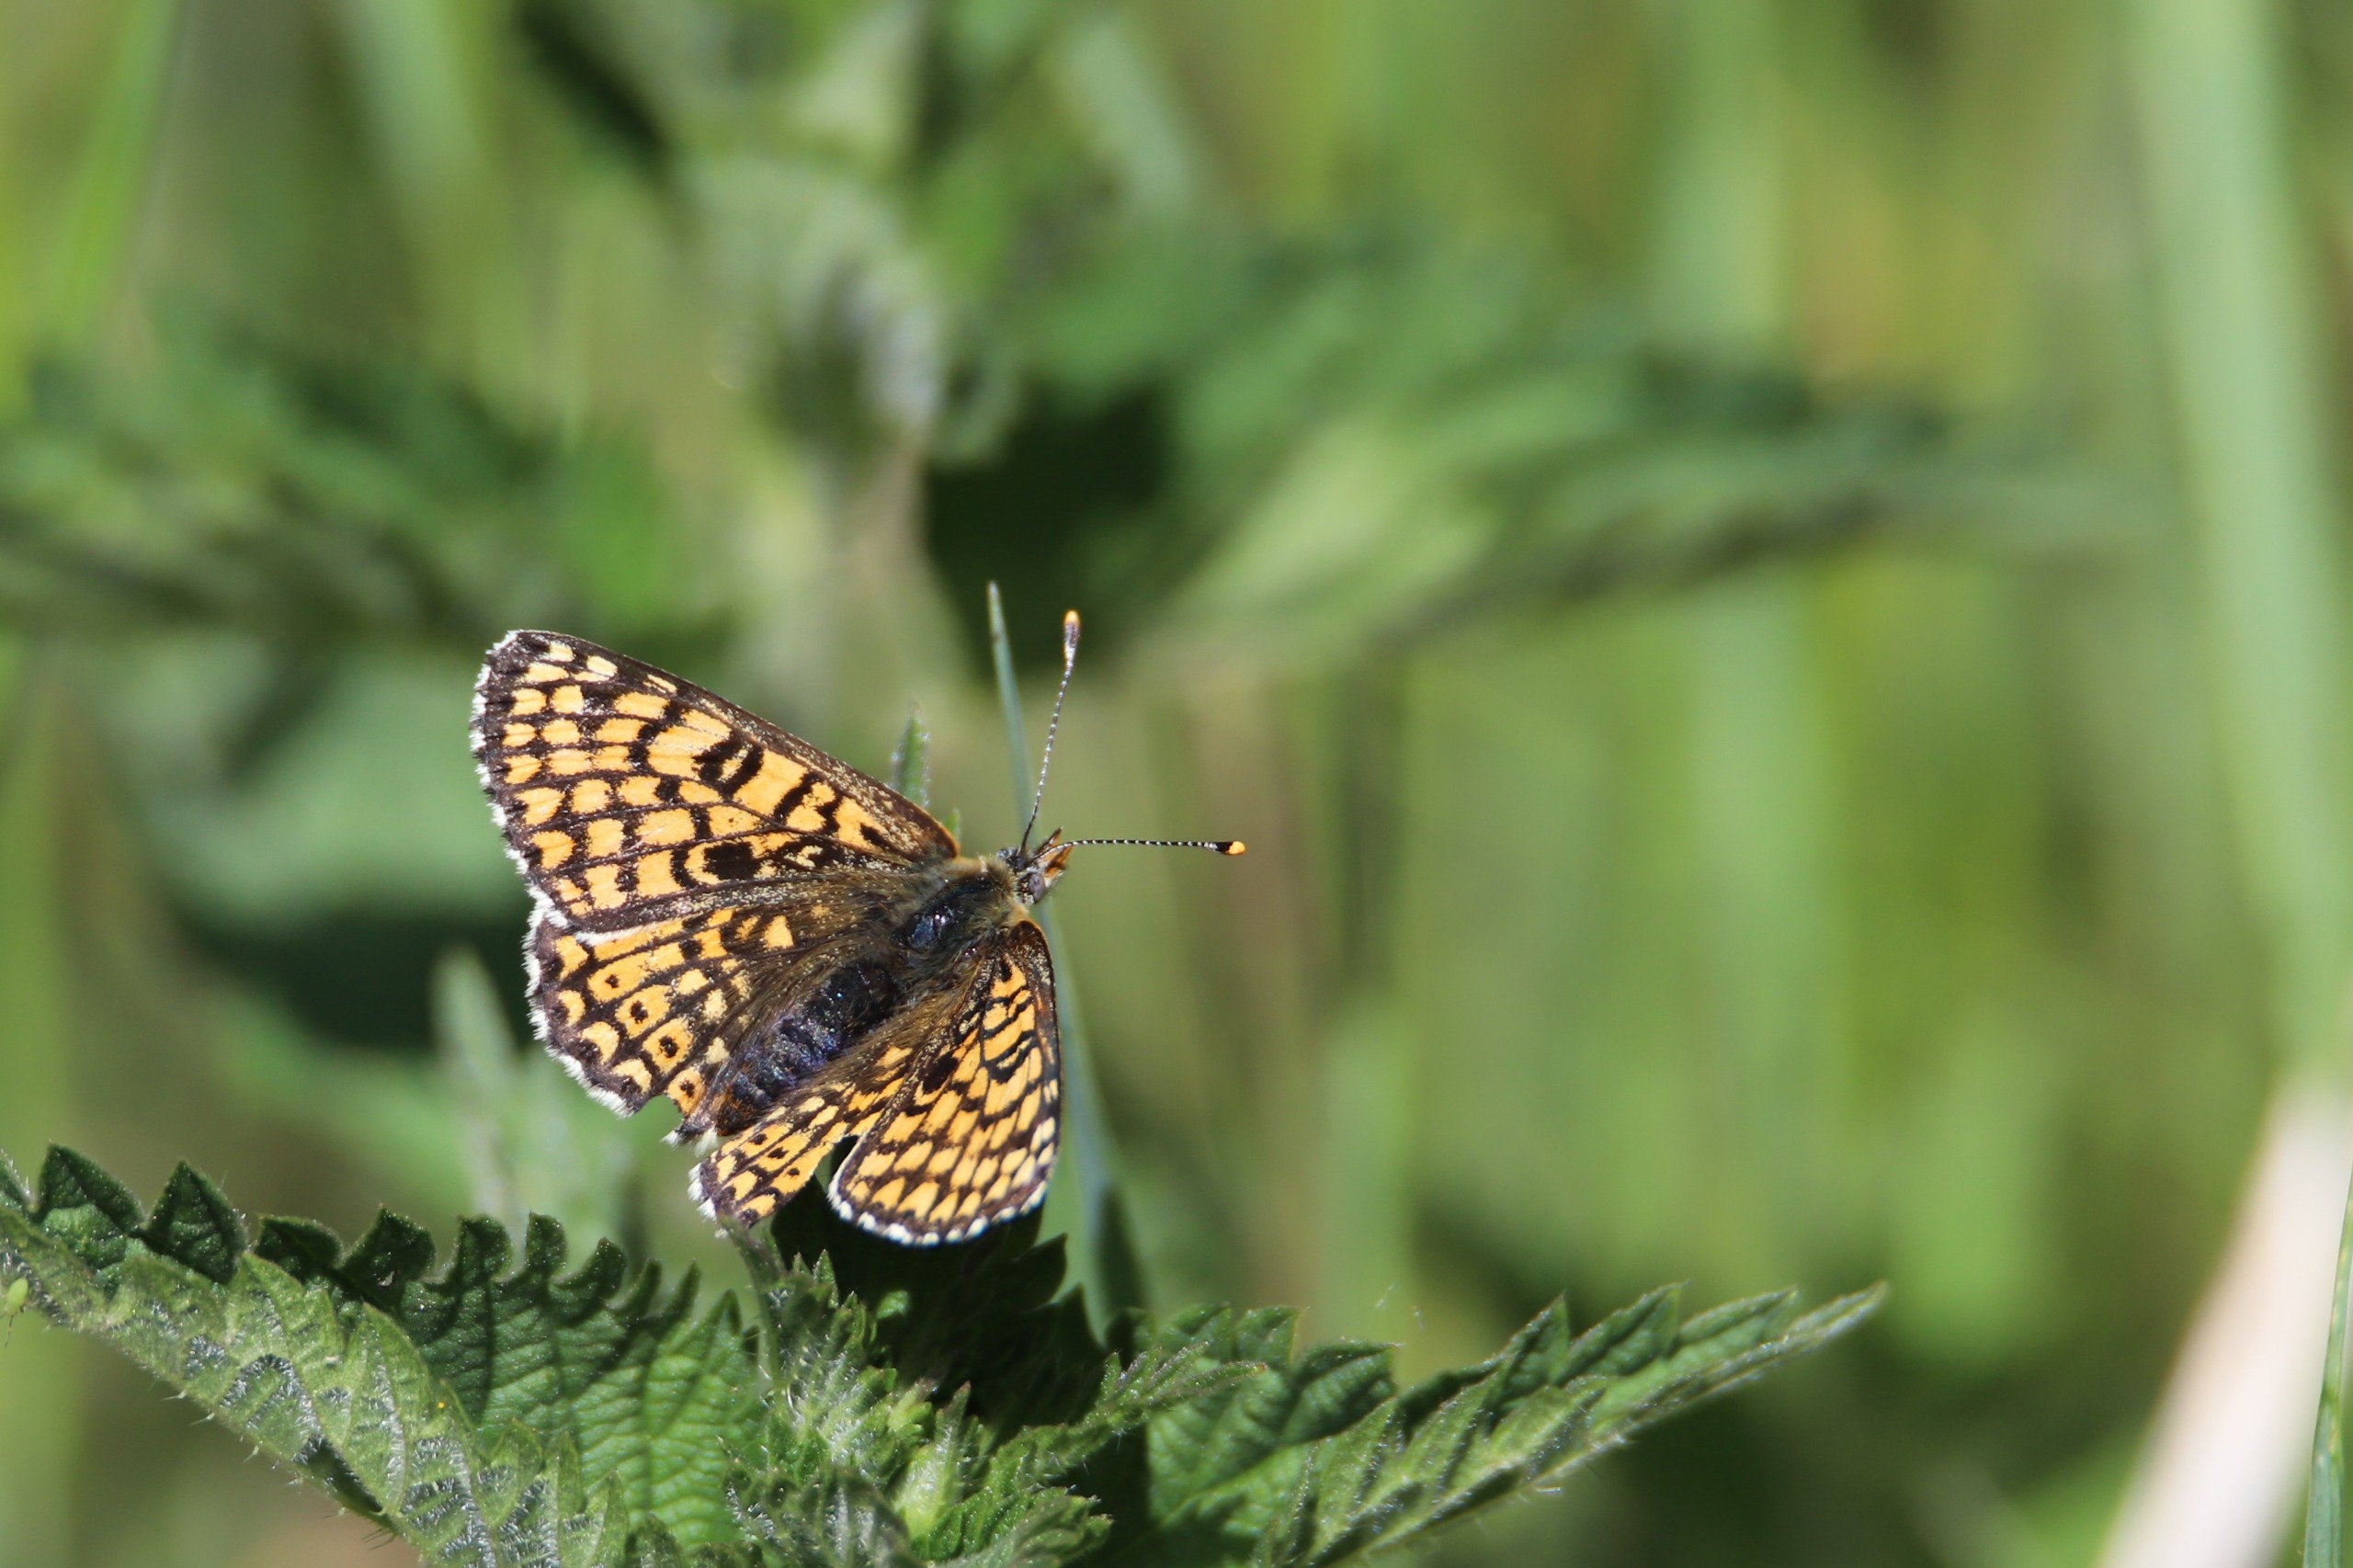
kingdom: Animalia
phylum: Arthropoda
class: Insecta
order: Lepidoptera
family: Nymphalidae
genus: Melitaea
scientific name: Melitaea cinxia
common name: Okkergul pletvinge
